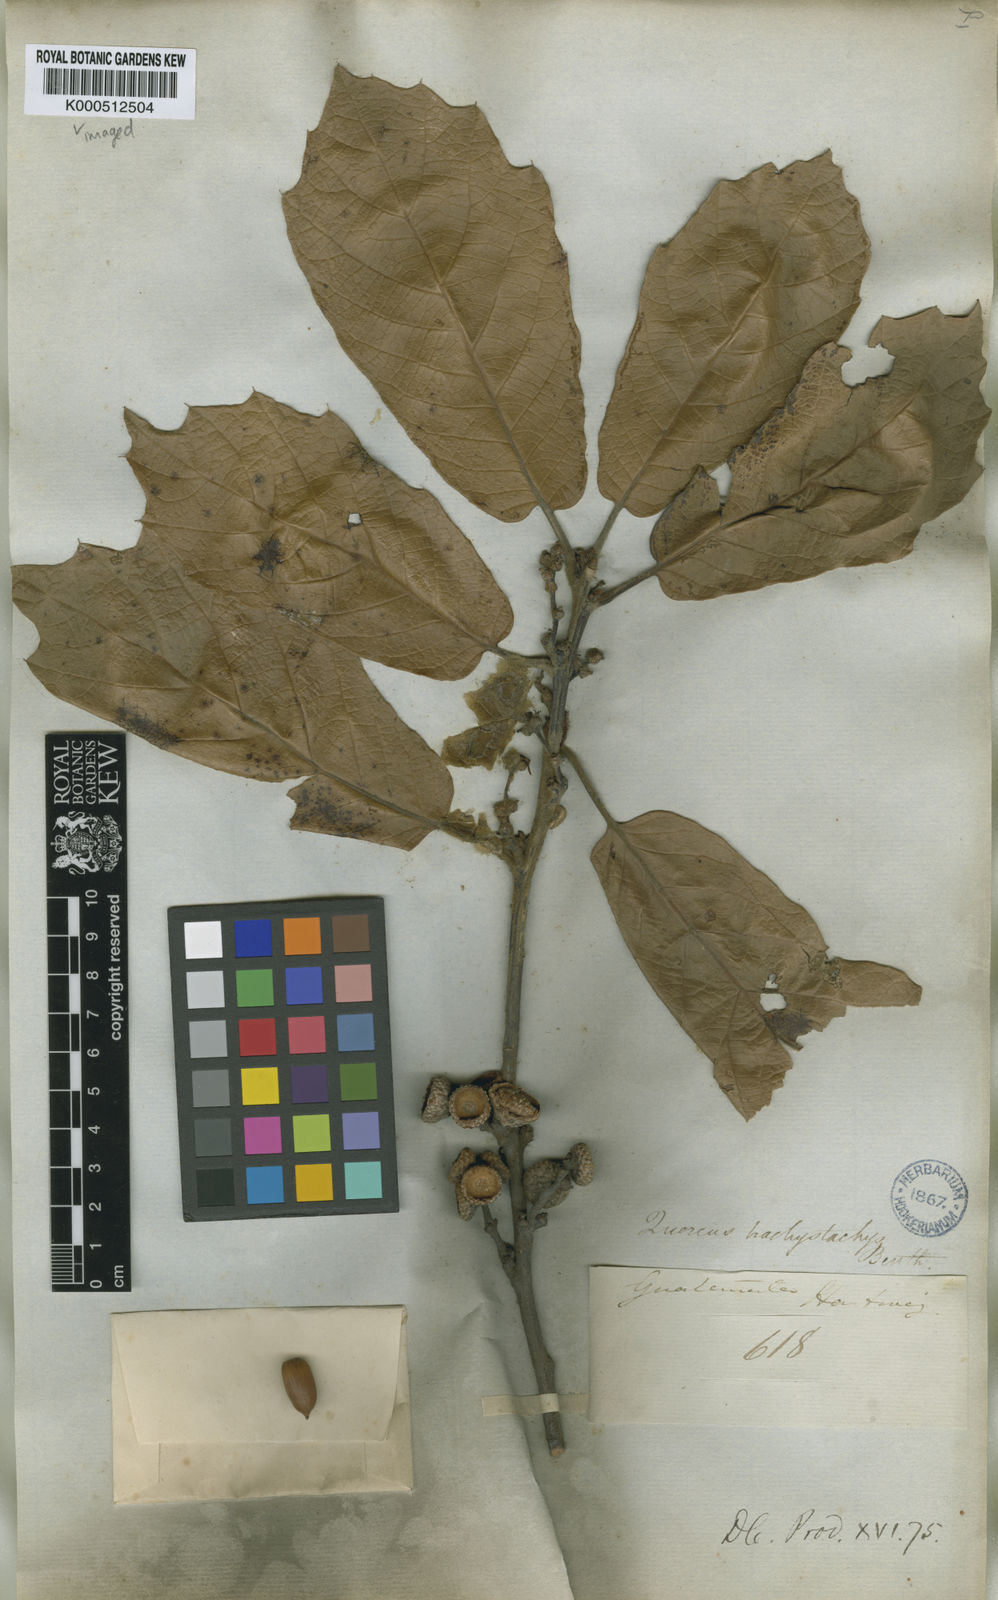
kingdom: Plantae
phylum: Tracheophyta
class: Magnoliopsida
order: Fagales
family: Fagaceae
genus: Quercus
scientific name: Quercus crassifolia
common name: Leather leaf mexican oak
